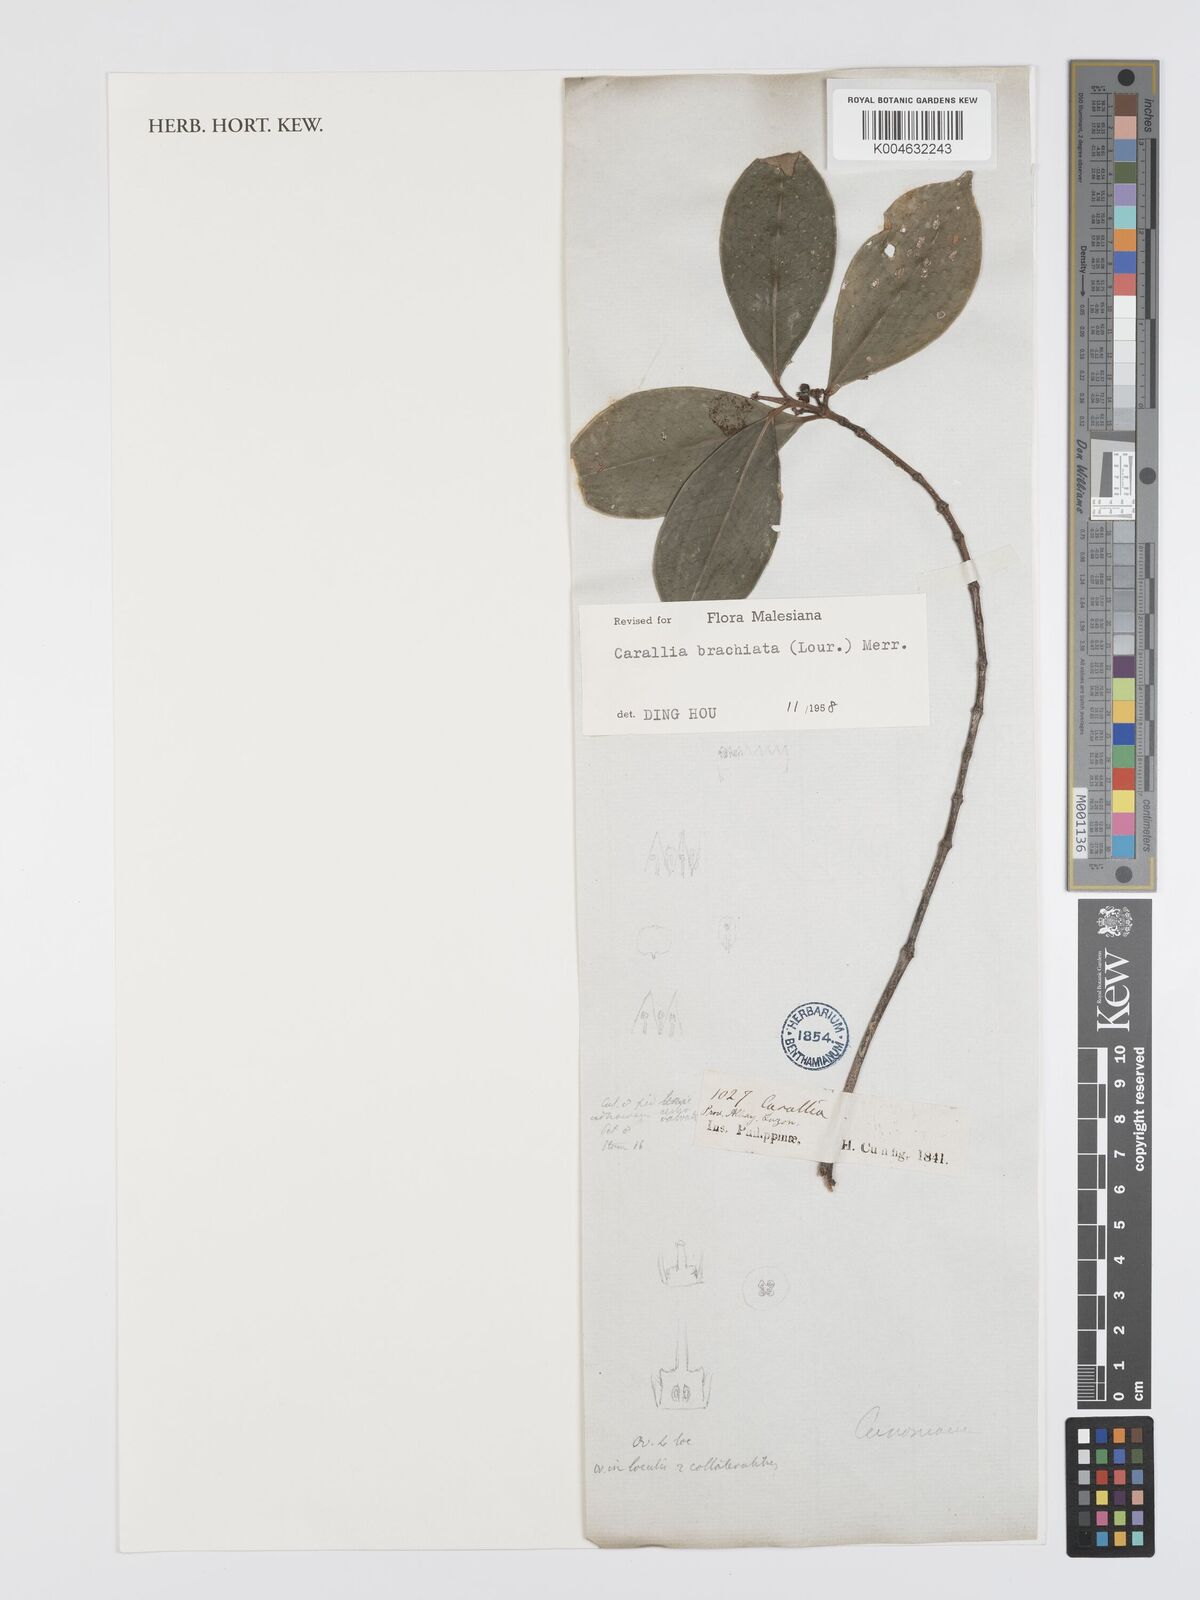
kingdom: Plantae
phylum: Tracheophyta
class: Magnoliopsida
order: Malpighiales
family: Rhizophoraceae
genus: Carallia
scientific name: Carallia brachiata
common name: Carallawood
